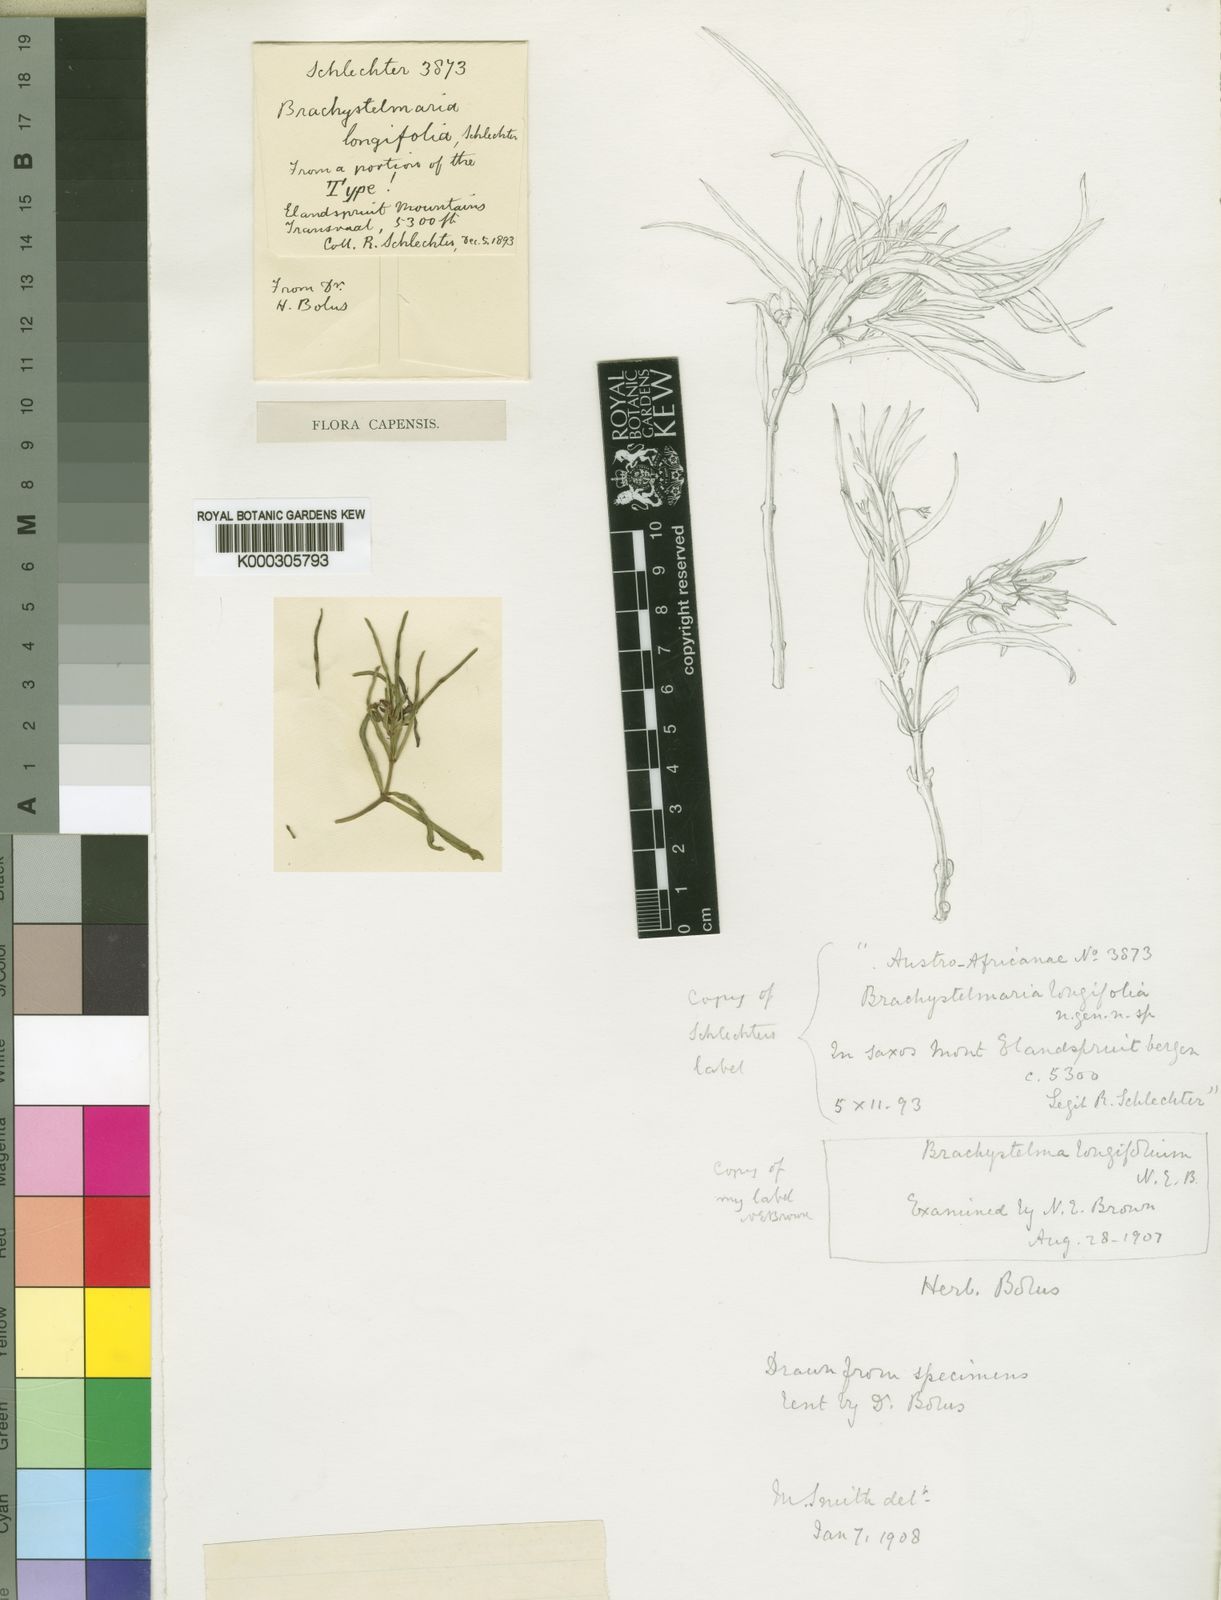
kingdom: Plantae
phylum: Tracheophyta
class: Magnoliopsida
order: Gentianales
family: Apocynaceae
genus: Ceropegia
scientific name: Ceropegia longifoliata
